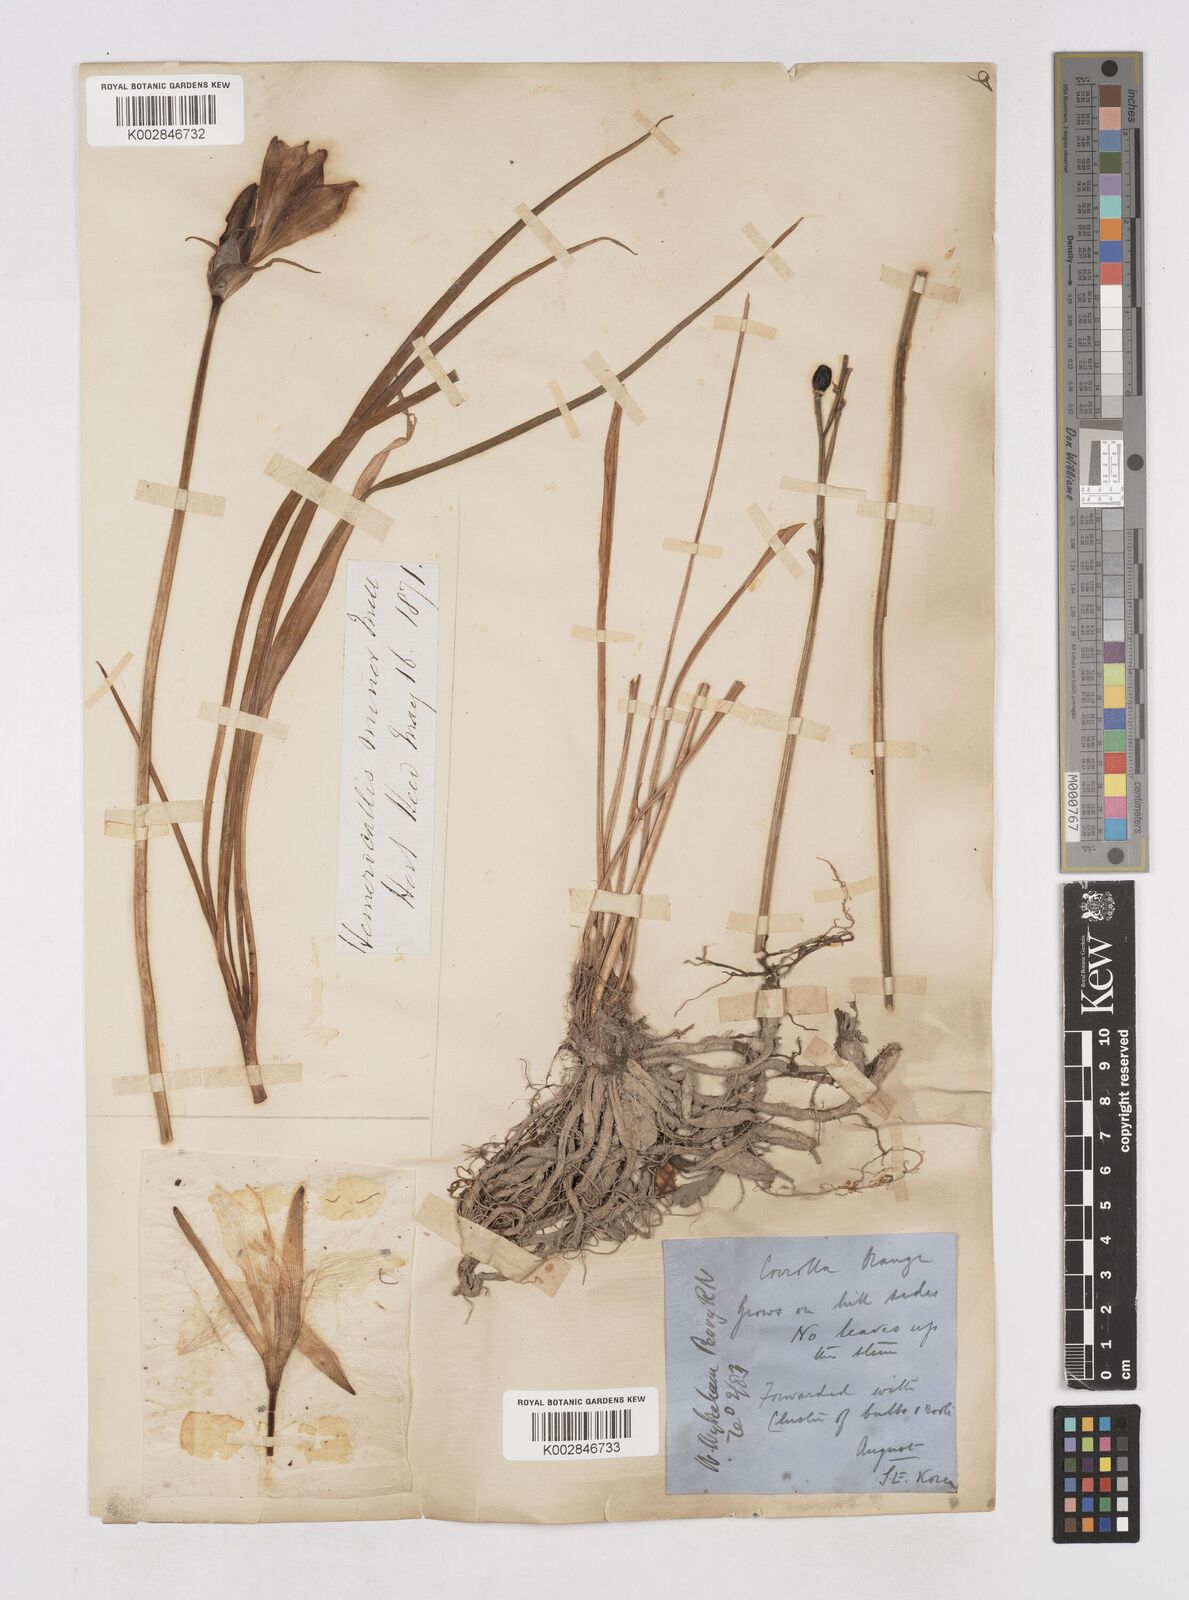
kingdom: Plantae
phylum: Tracheophyta
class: Liliopsida
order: Asparagales
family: Asphodelaceae
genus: Hemerocallis
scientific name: Hemerocallis
